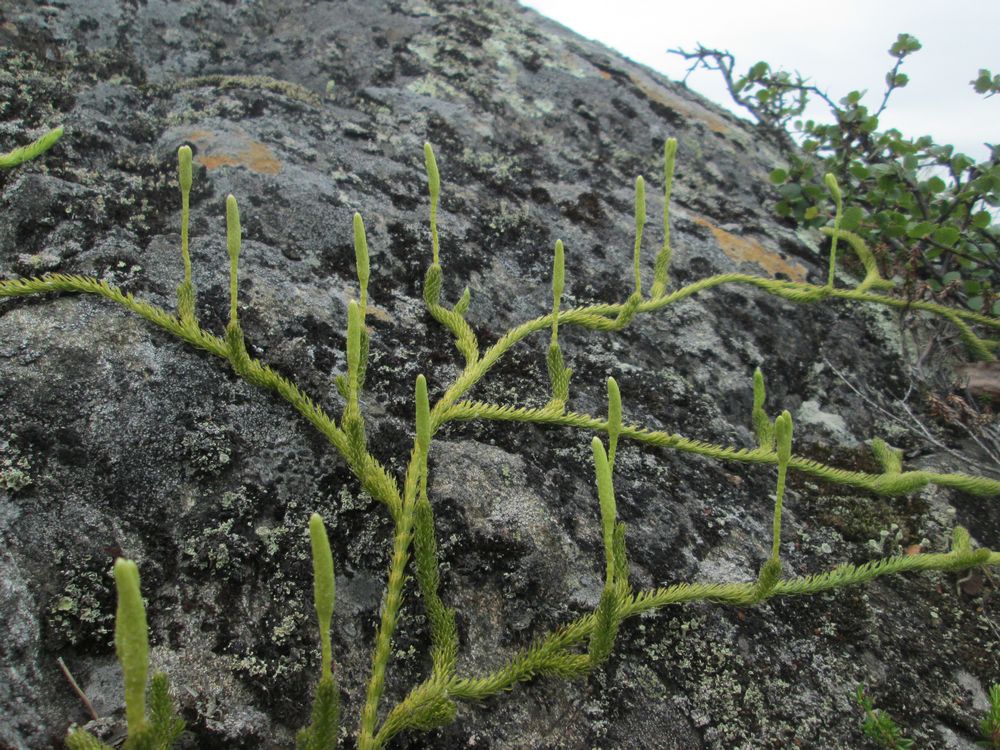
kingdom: Plantae
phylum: Tracheophyta
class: Lycopodiopsida
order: Lycopodiales
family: Lycopodiaceae
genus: Lycopodium
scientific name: Lycopodium lagopus
